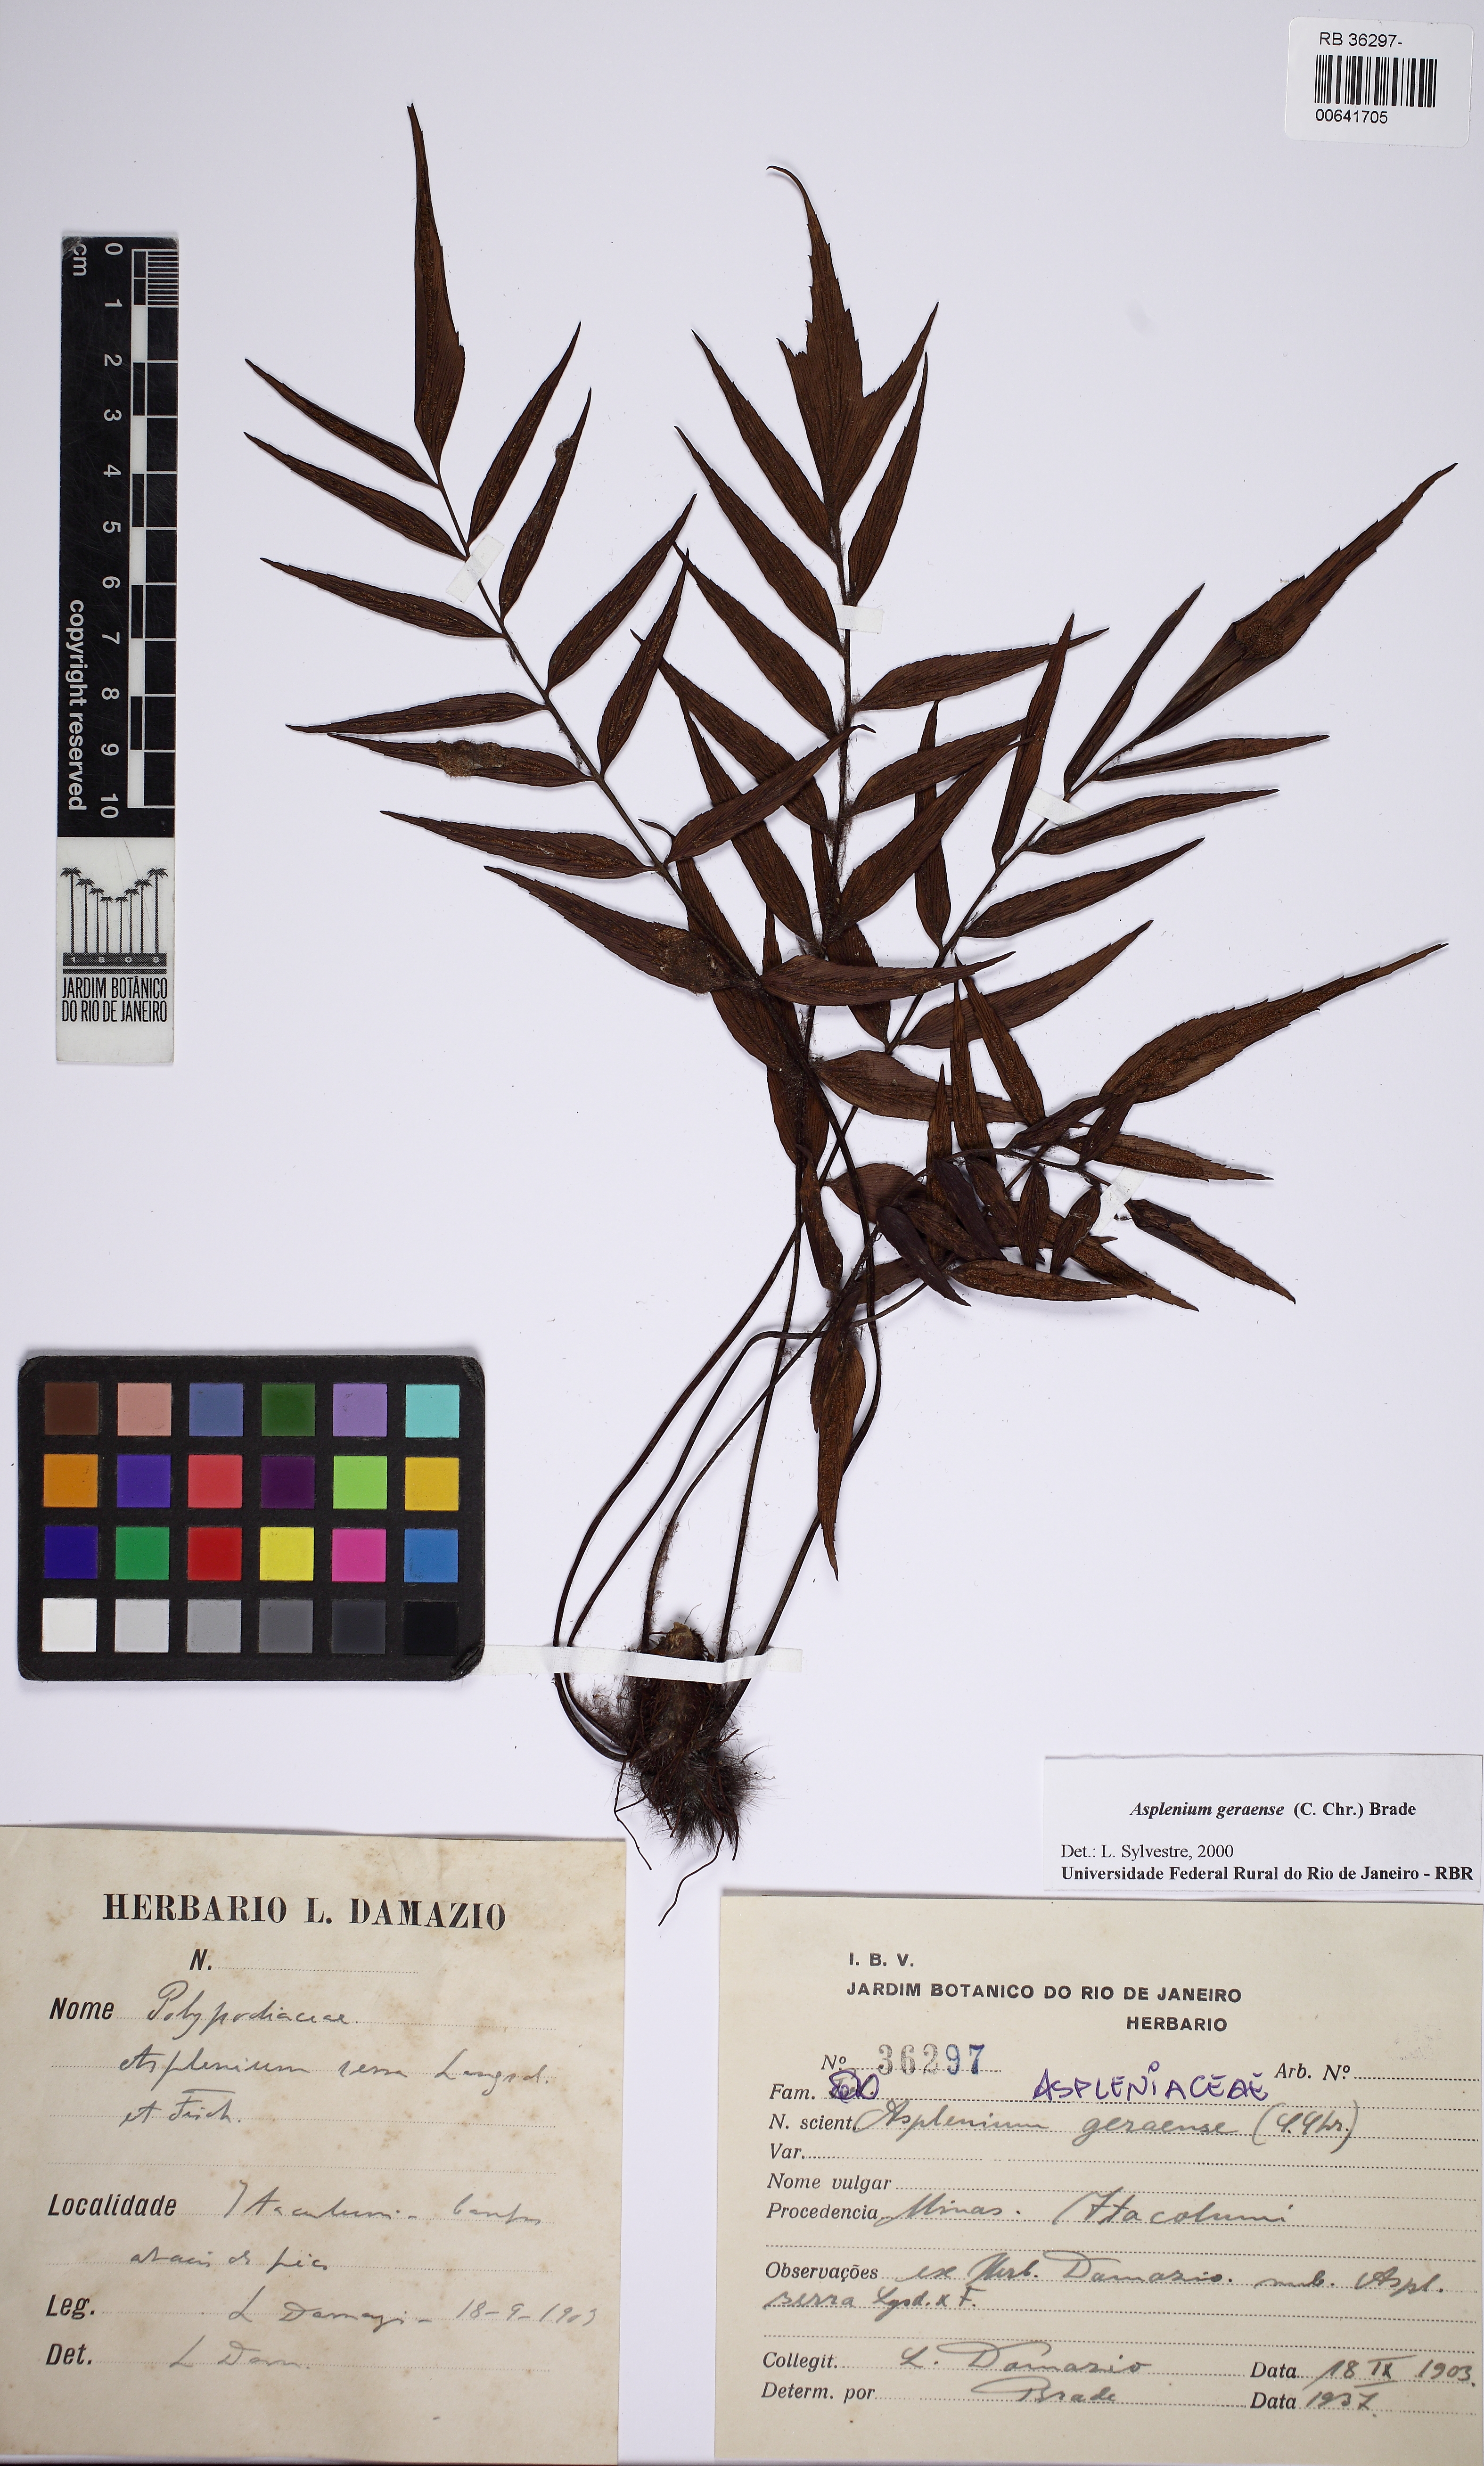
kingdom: Plantae
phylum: Tracheophyta
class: Polypodiopsida
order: Polypodiales
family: Aspleniaceae
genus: Asplenium
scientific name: Asplenium geraense
